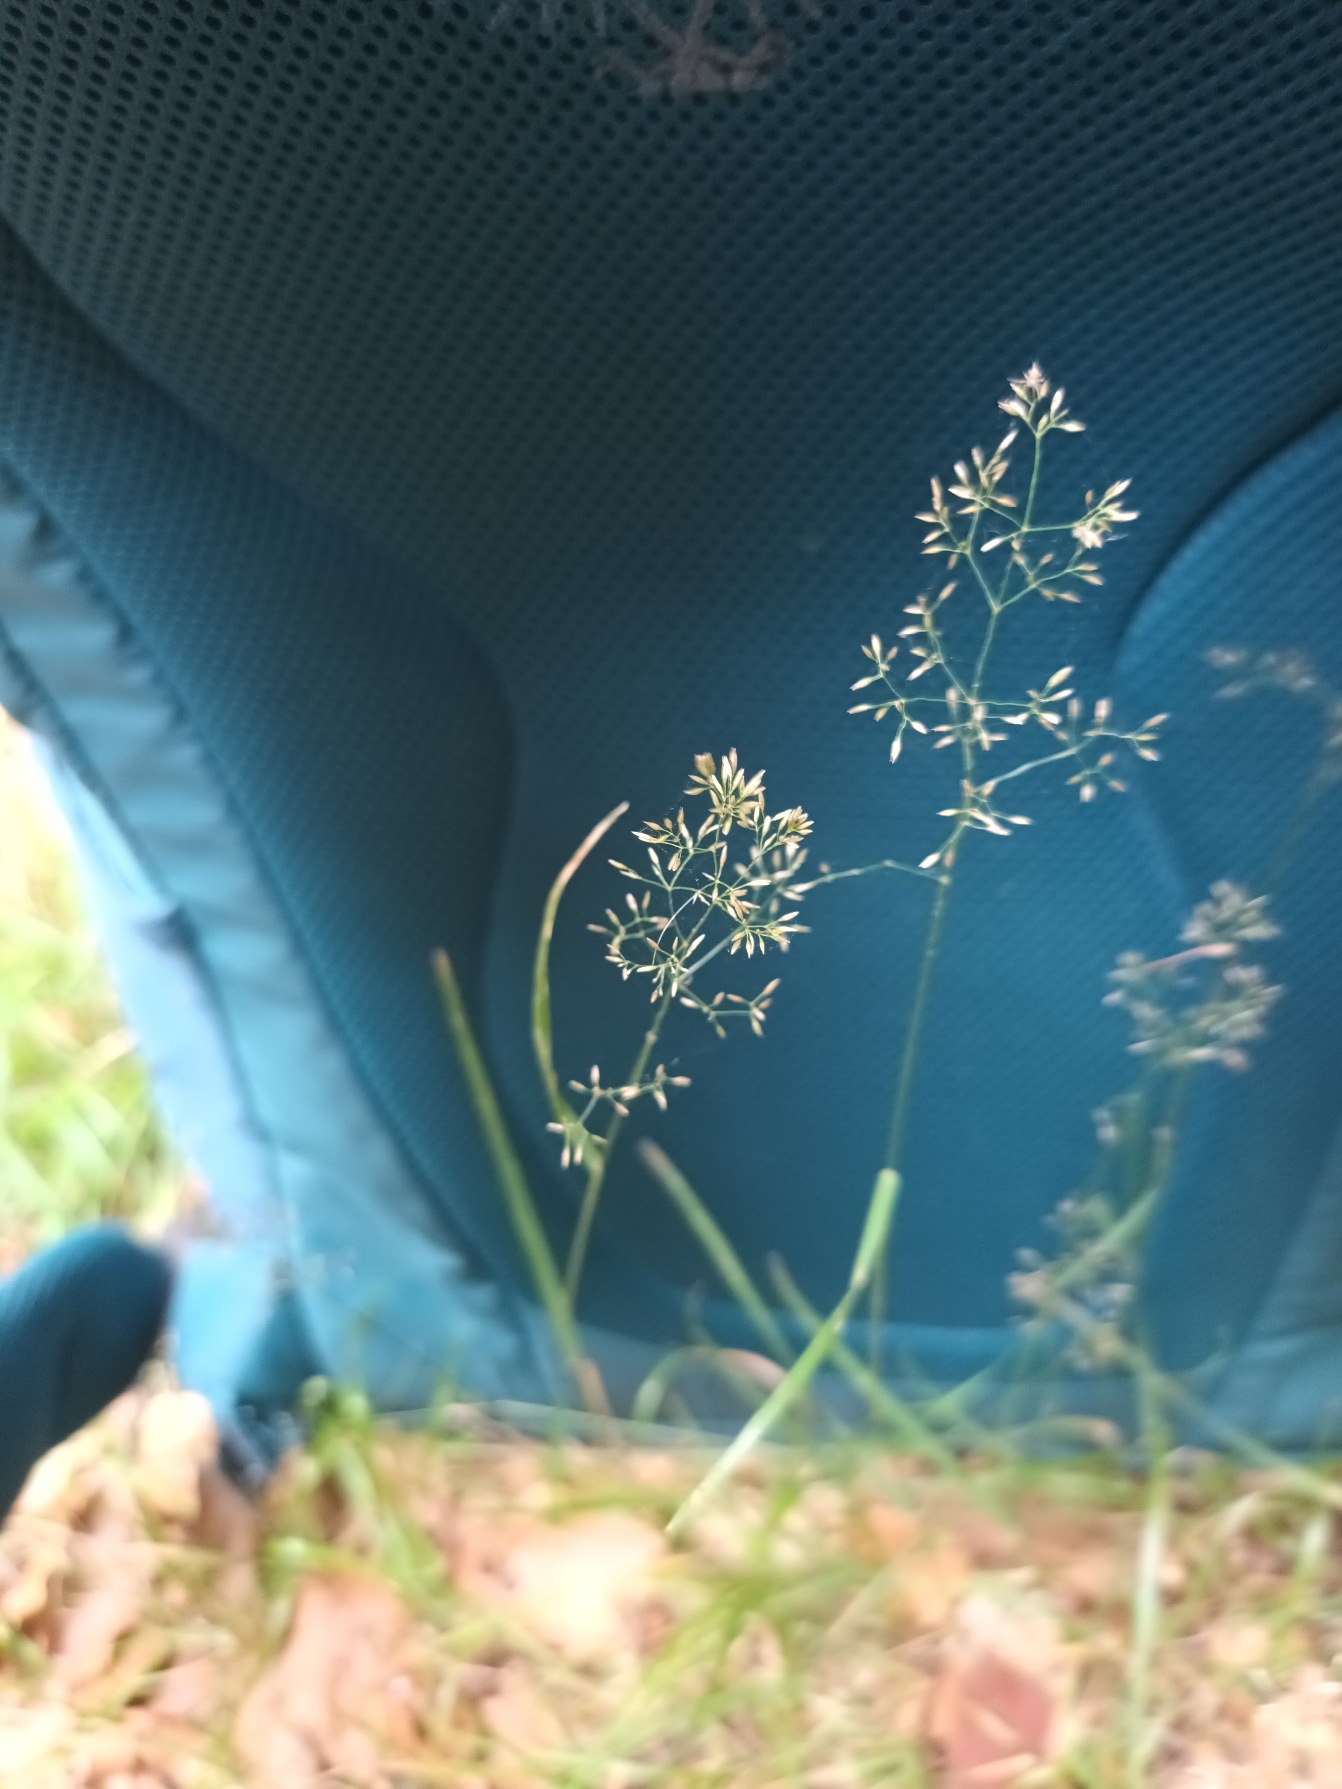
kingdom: Plantae
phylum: Tracheophyta
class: Liliopsida
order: Poales
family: Poaceae
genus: Agrostis
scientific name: Agrostis capillaris
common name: Almindelig hvene
